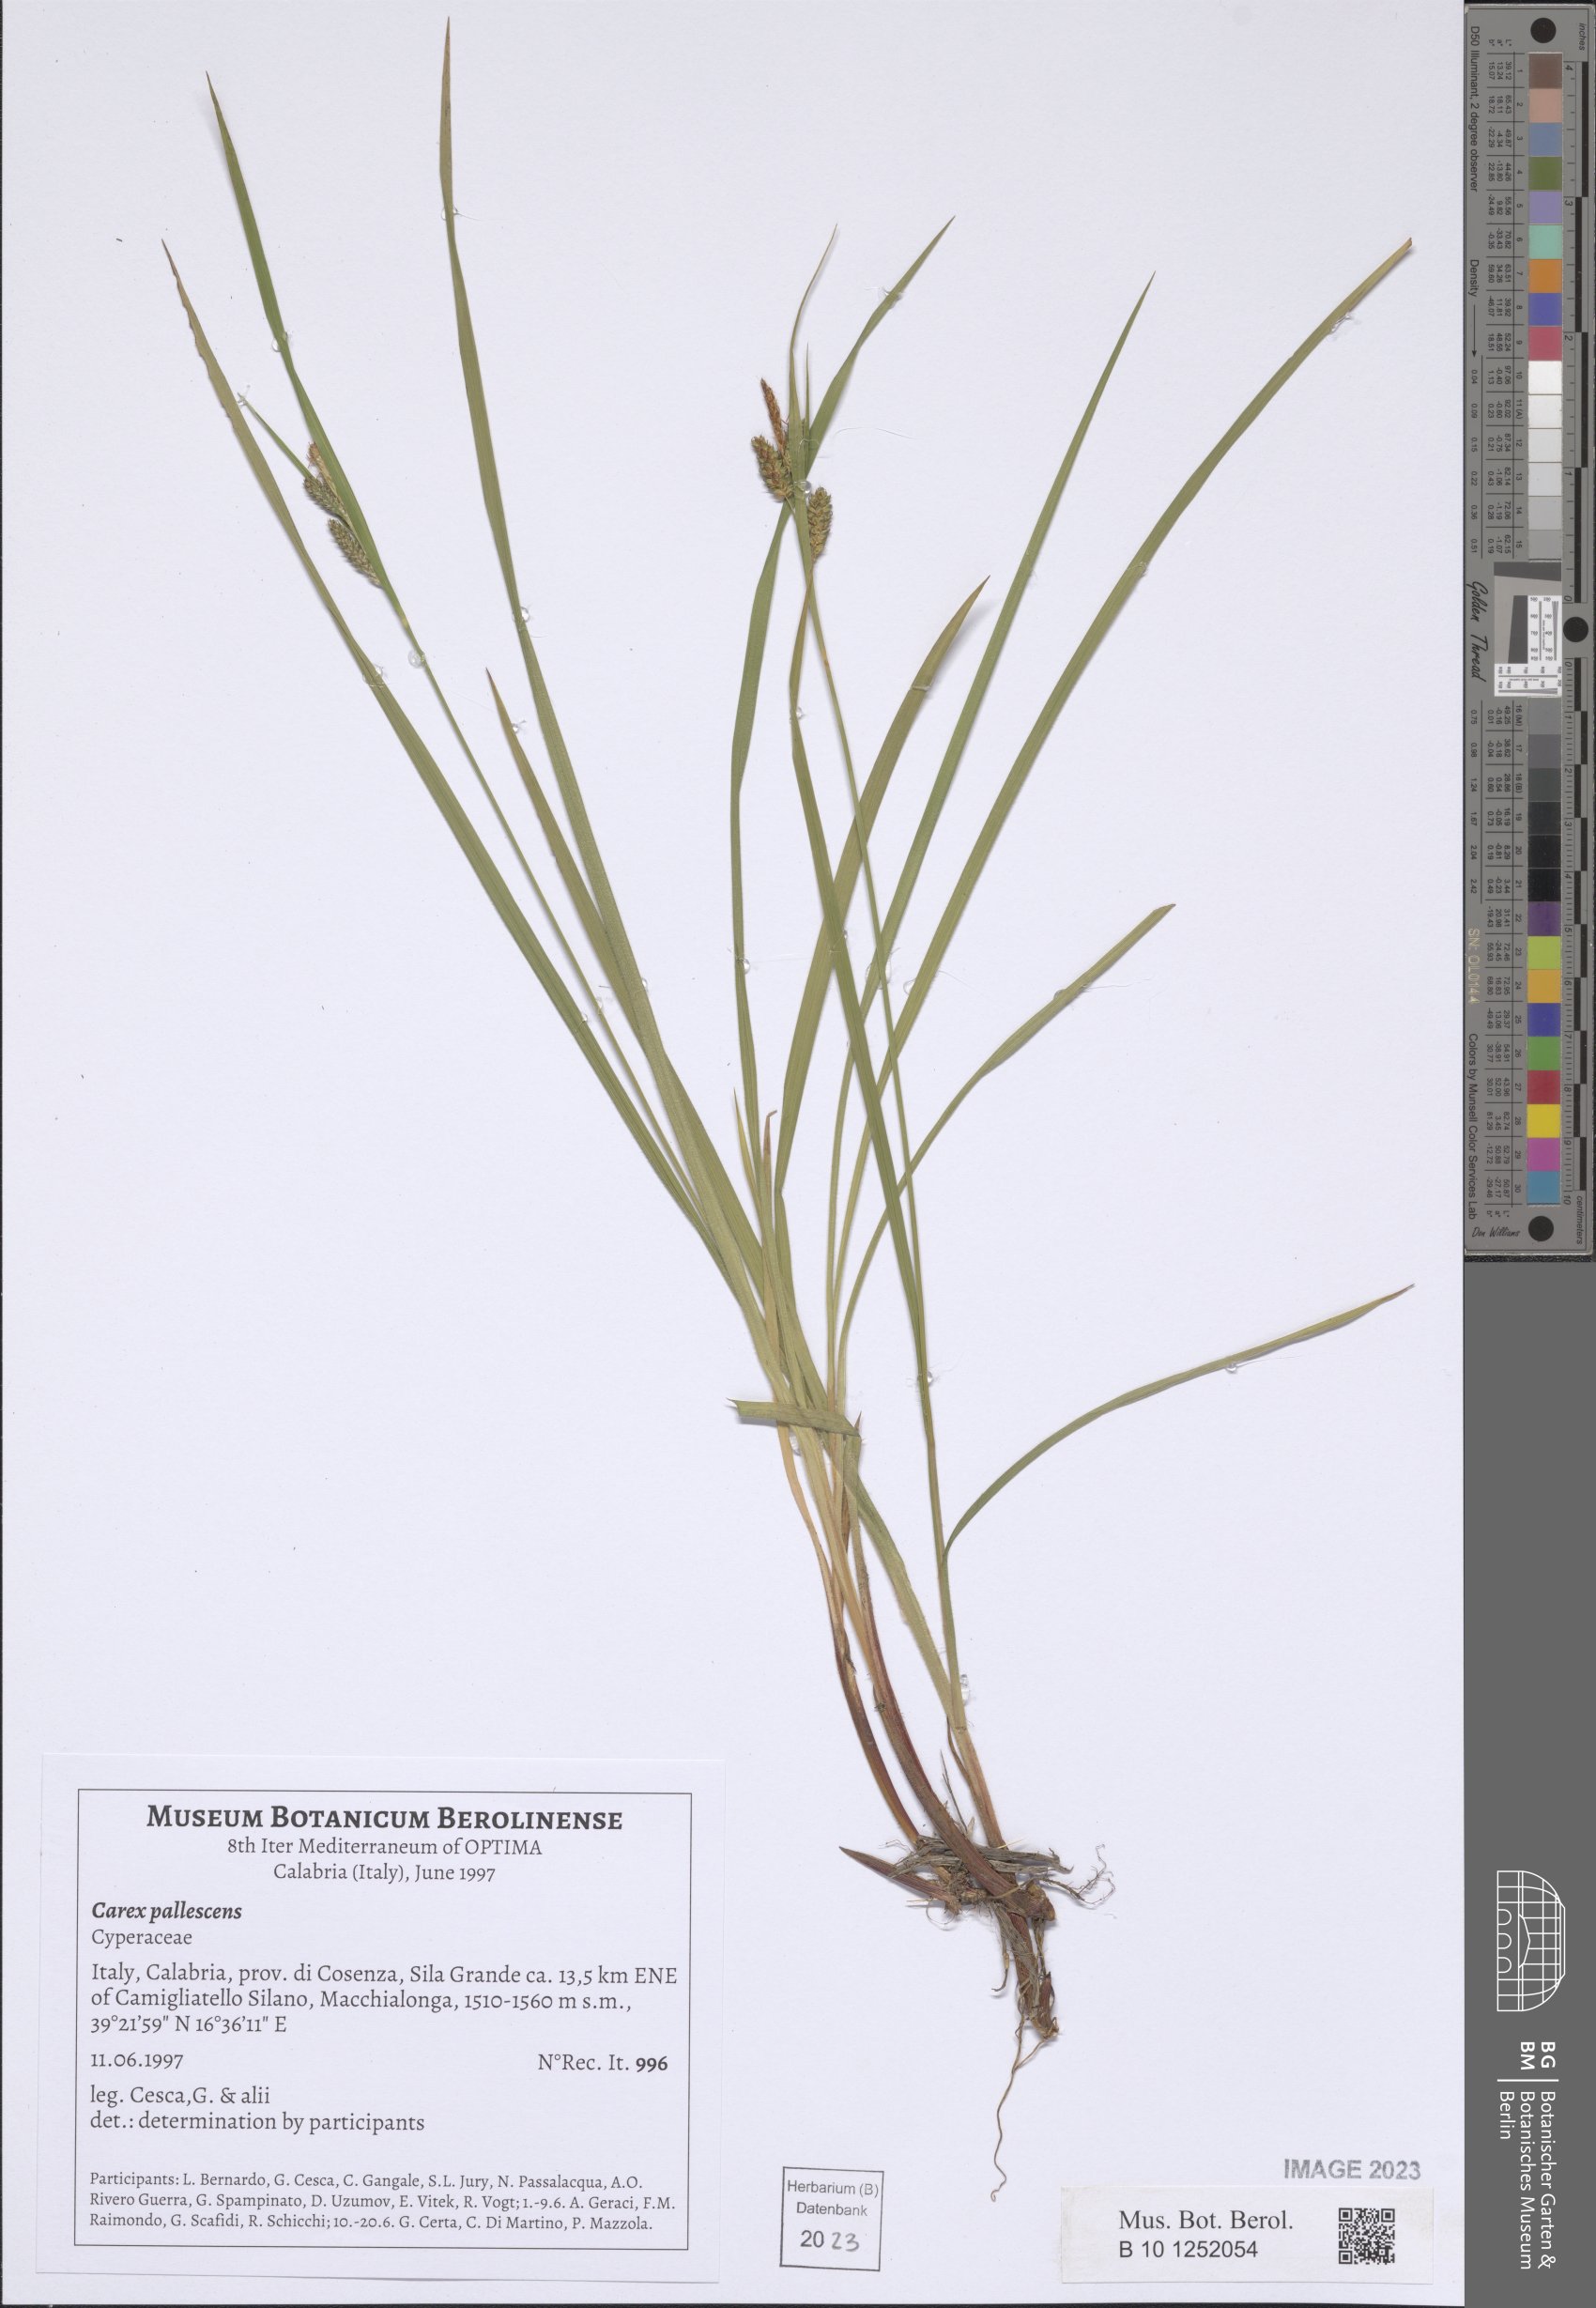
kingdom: Plantae
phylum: Tracheophyta
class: Liliopsida
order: Poales
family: Cyperaceae
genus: Carex
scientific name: Carex pallescens
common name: Pale sedge
